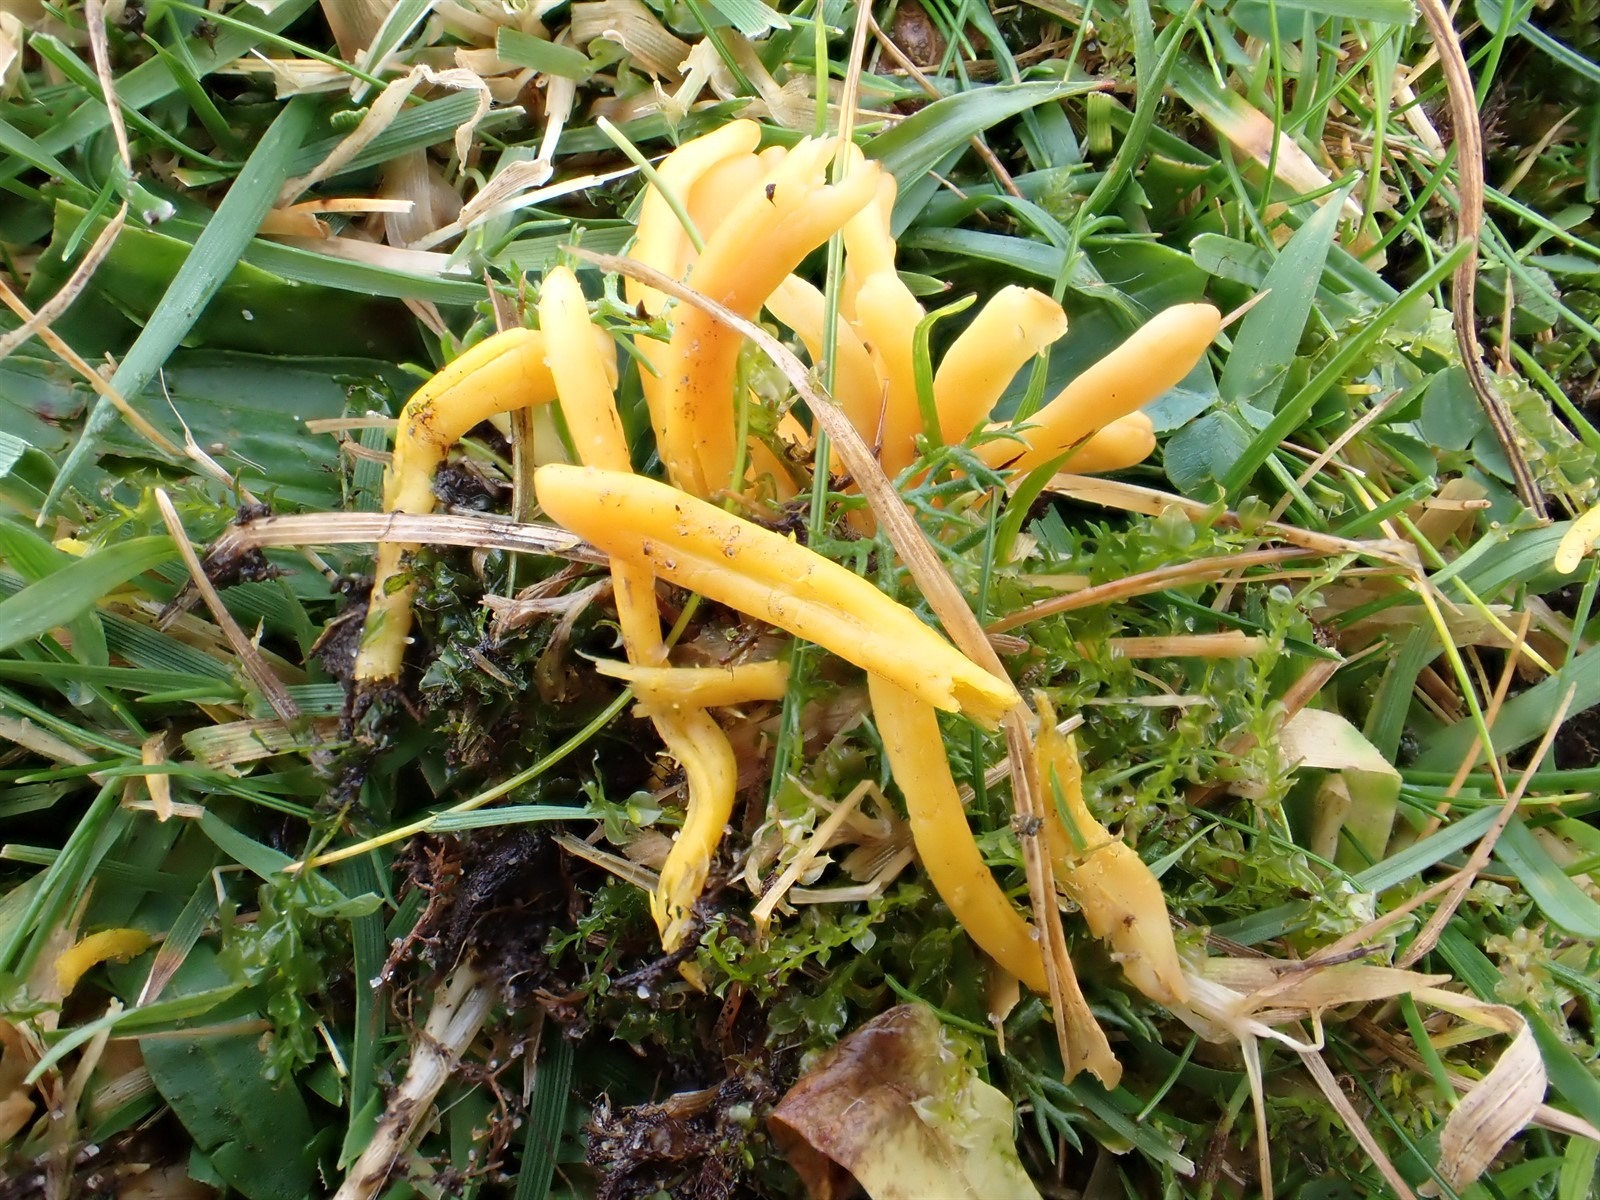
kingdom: Fungi
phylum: Basidiomycota
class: Agaricomycetes
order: Agaricales
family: Clavariaceae
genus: Clavulinopsis
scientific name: Clavulinopsis laeticolor
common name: Handsome club
